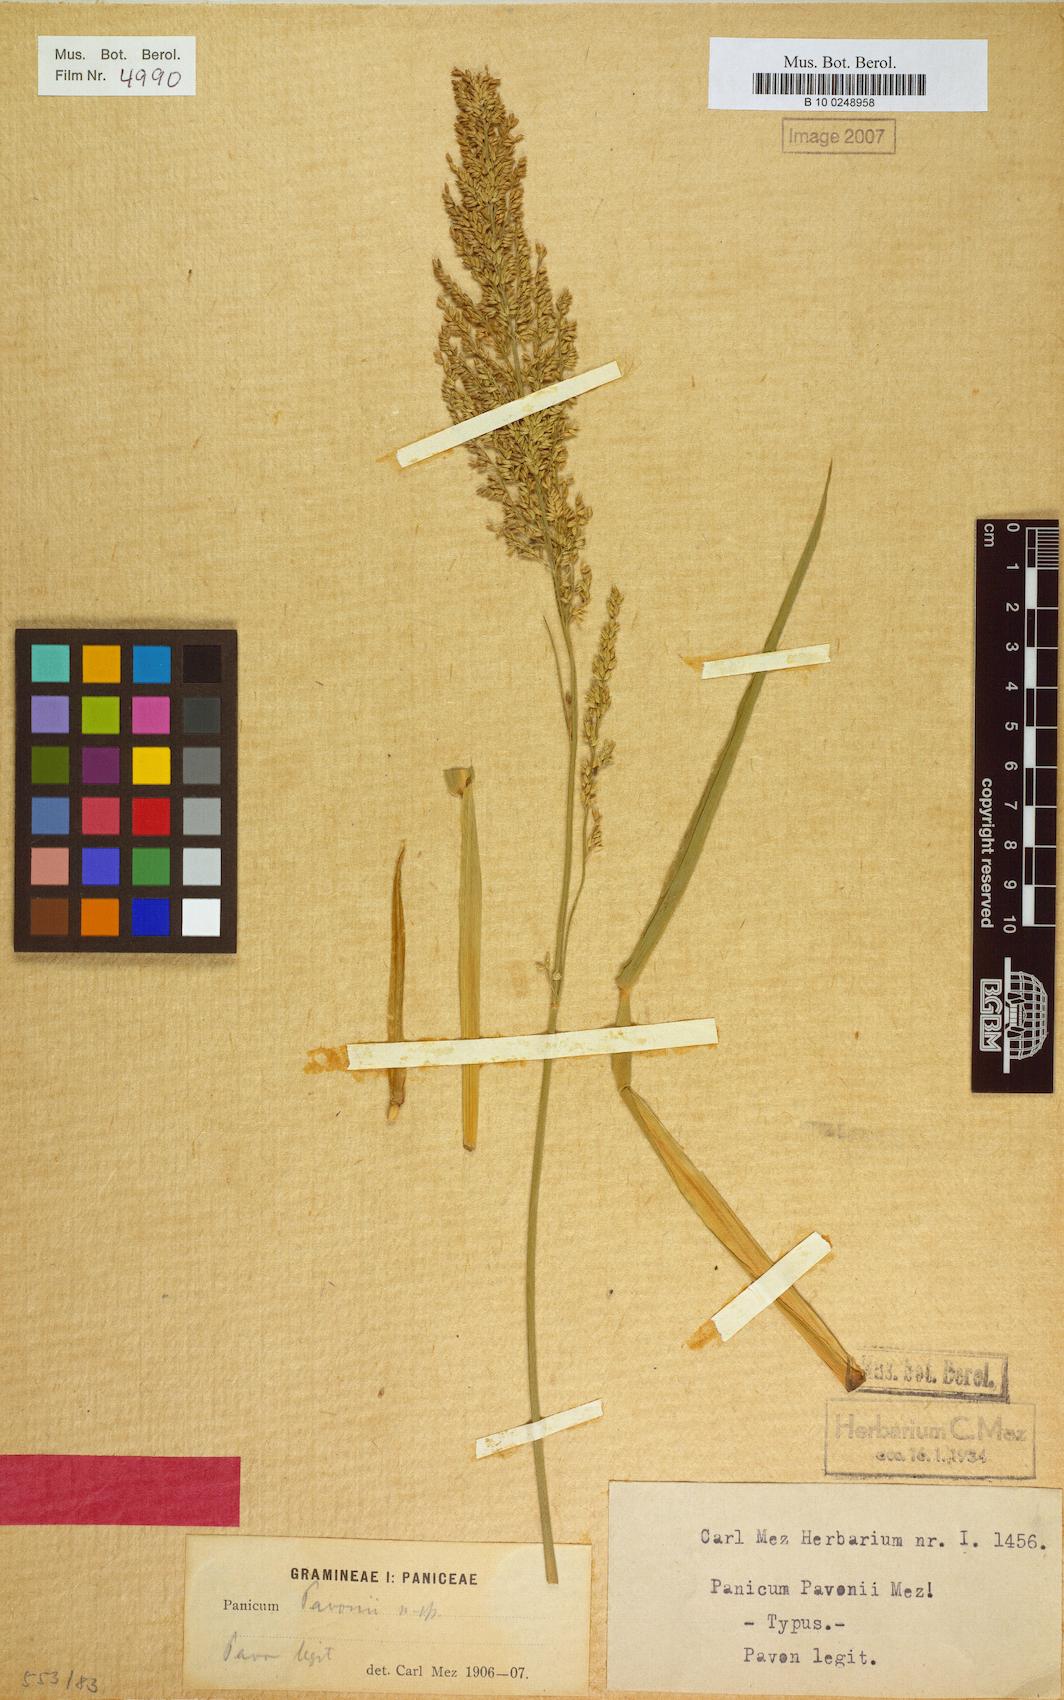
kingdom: Plantae
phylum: Tracheophyta
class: Liliopsida
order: Poales
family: Poaceae
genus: Hymenachne
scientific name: Hymenachne grumosa
